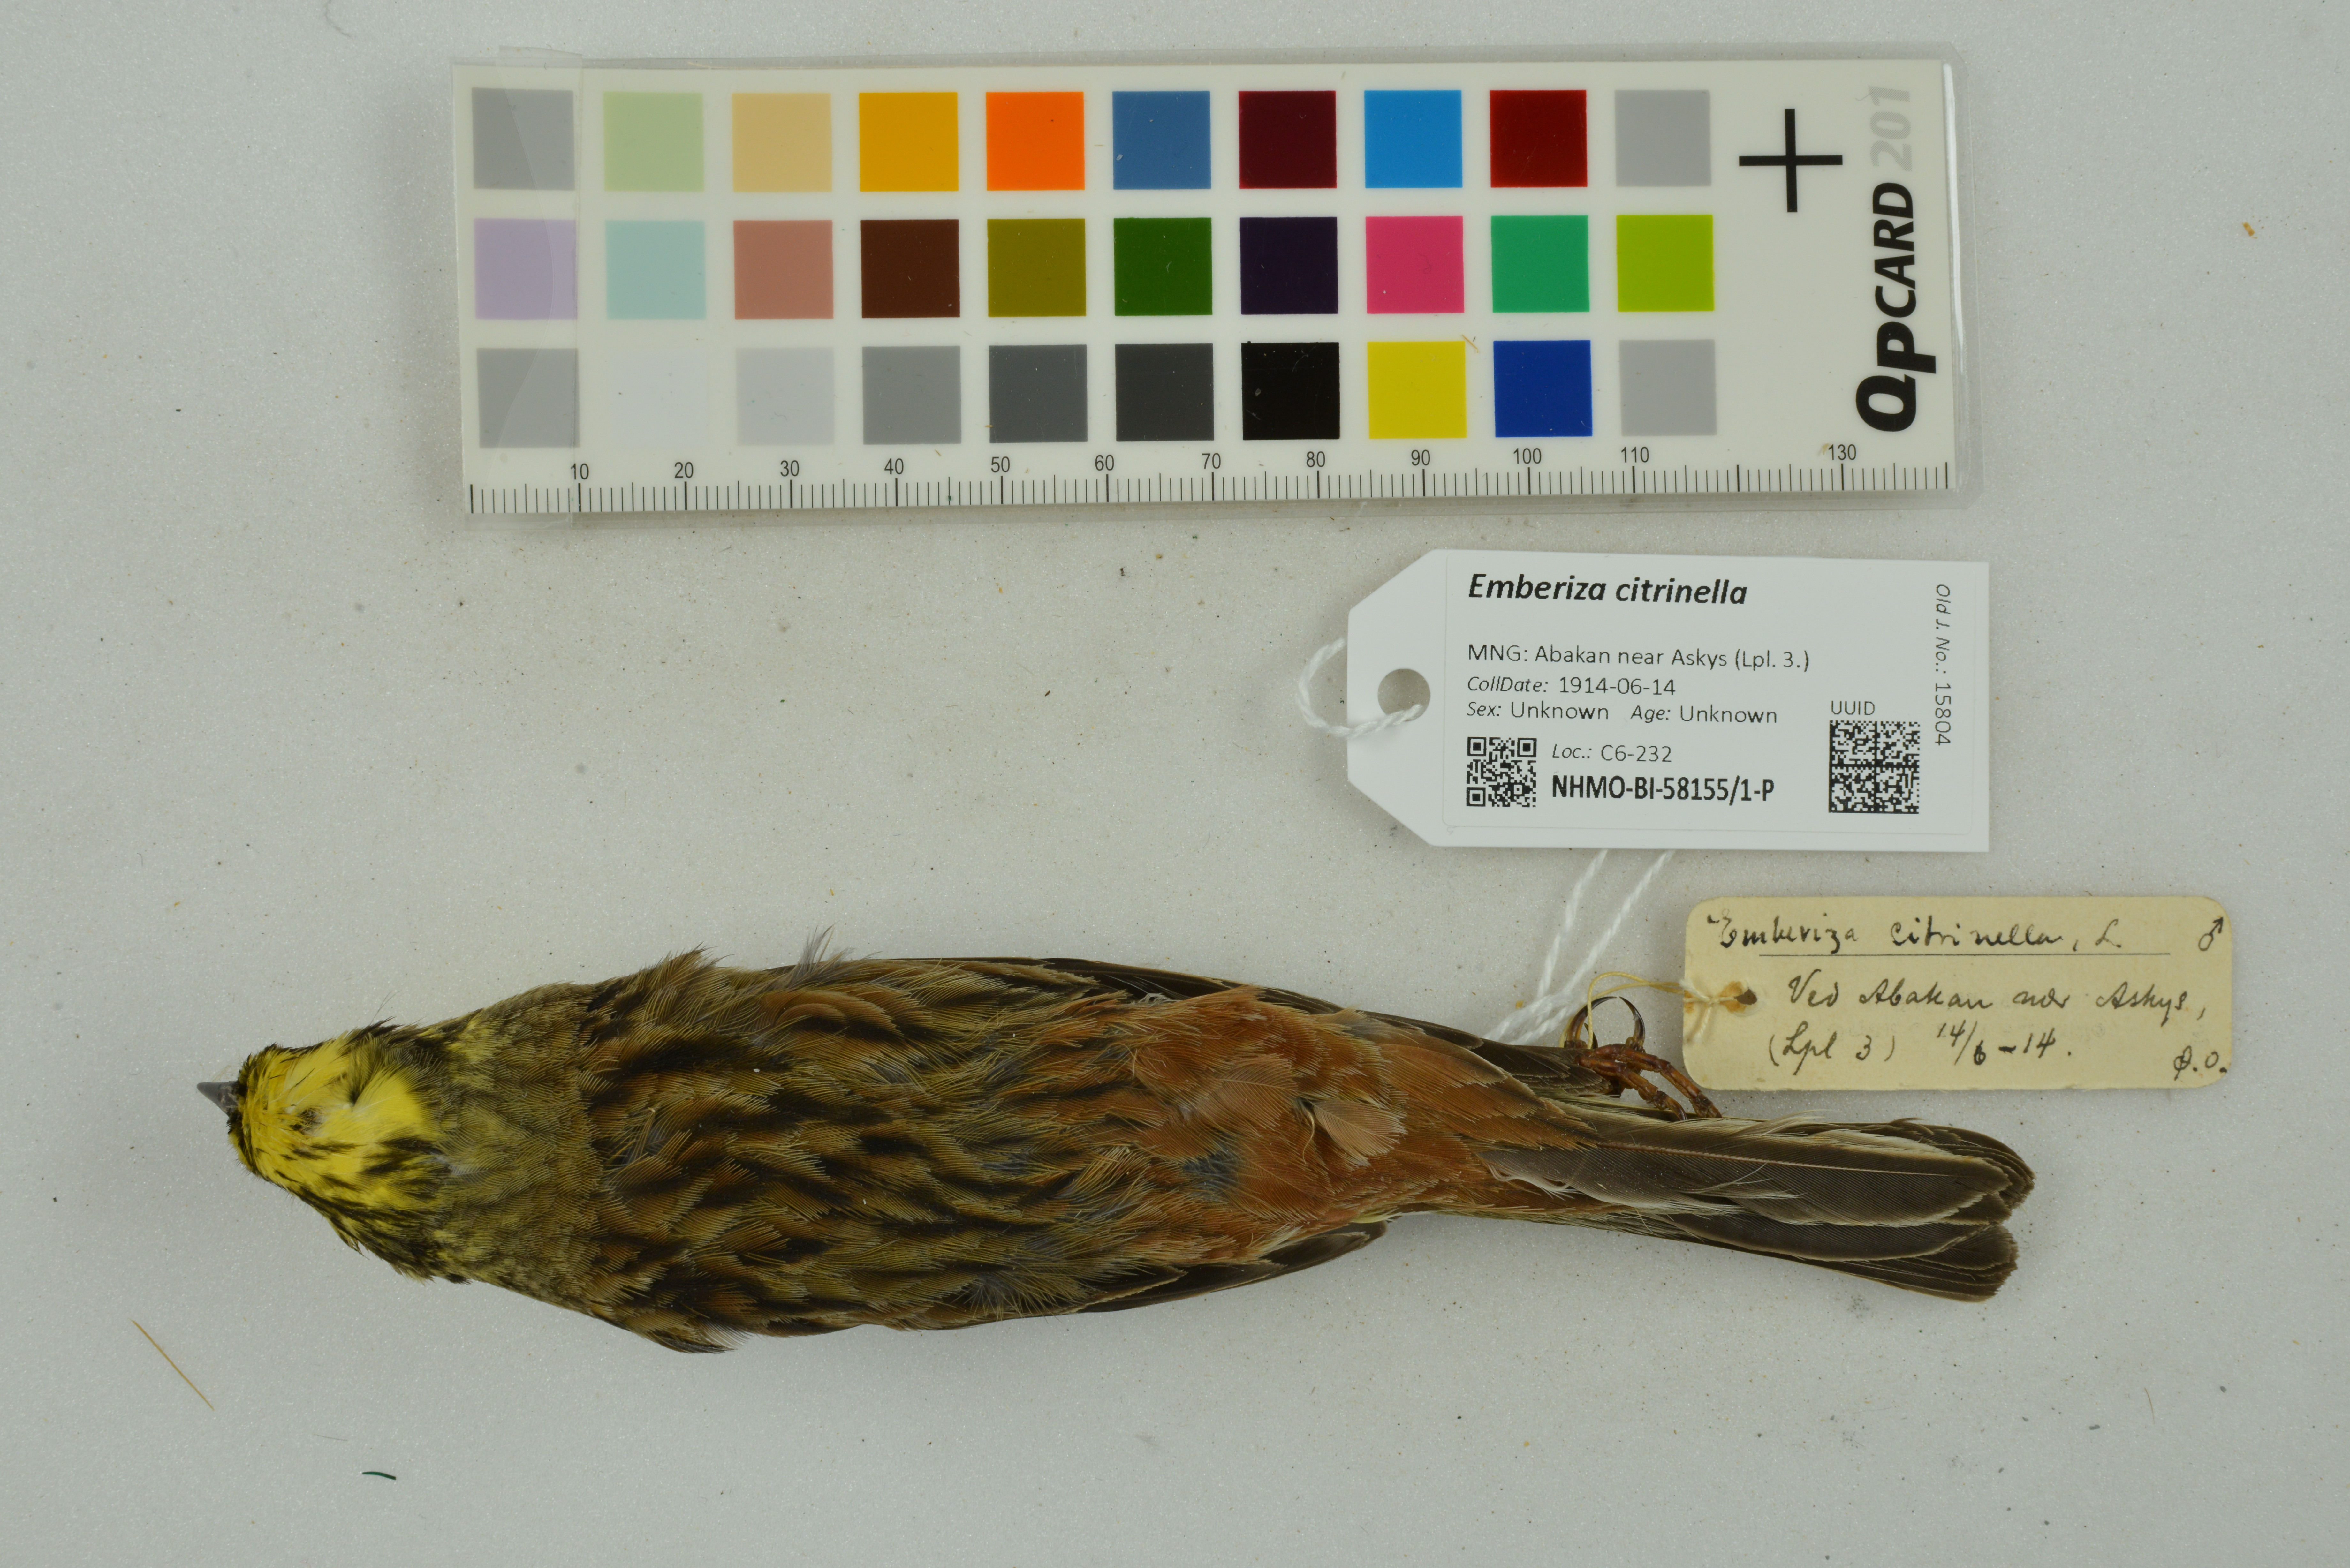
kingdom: Animalia
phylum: Chordata
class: Aves
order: Passeriformes
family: Emberizidae
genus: Emberiza
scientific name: Emberiza citrinella
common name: Yellowhammer
